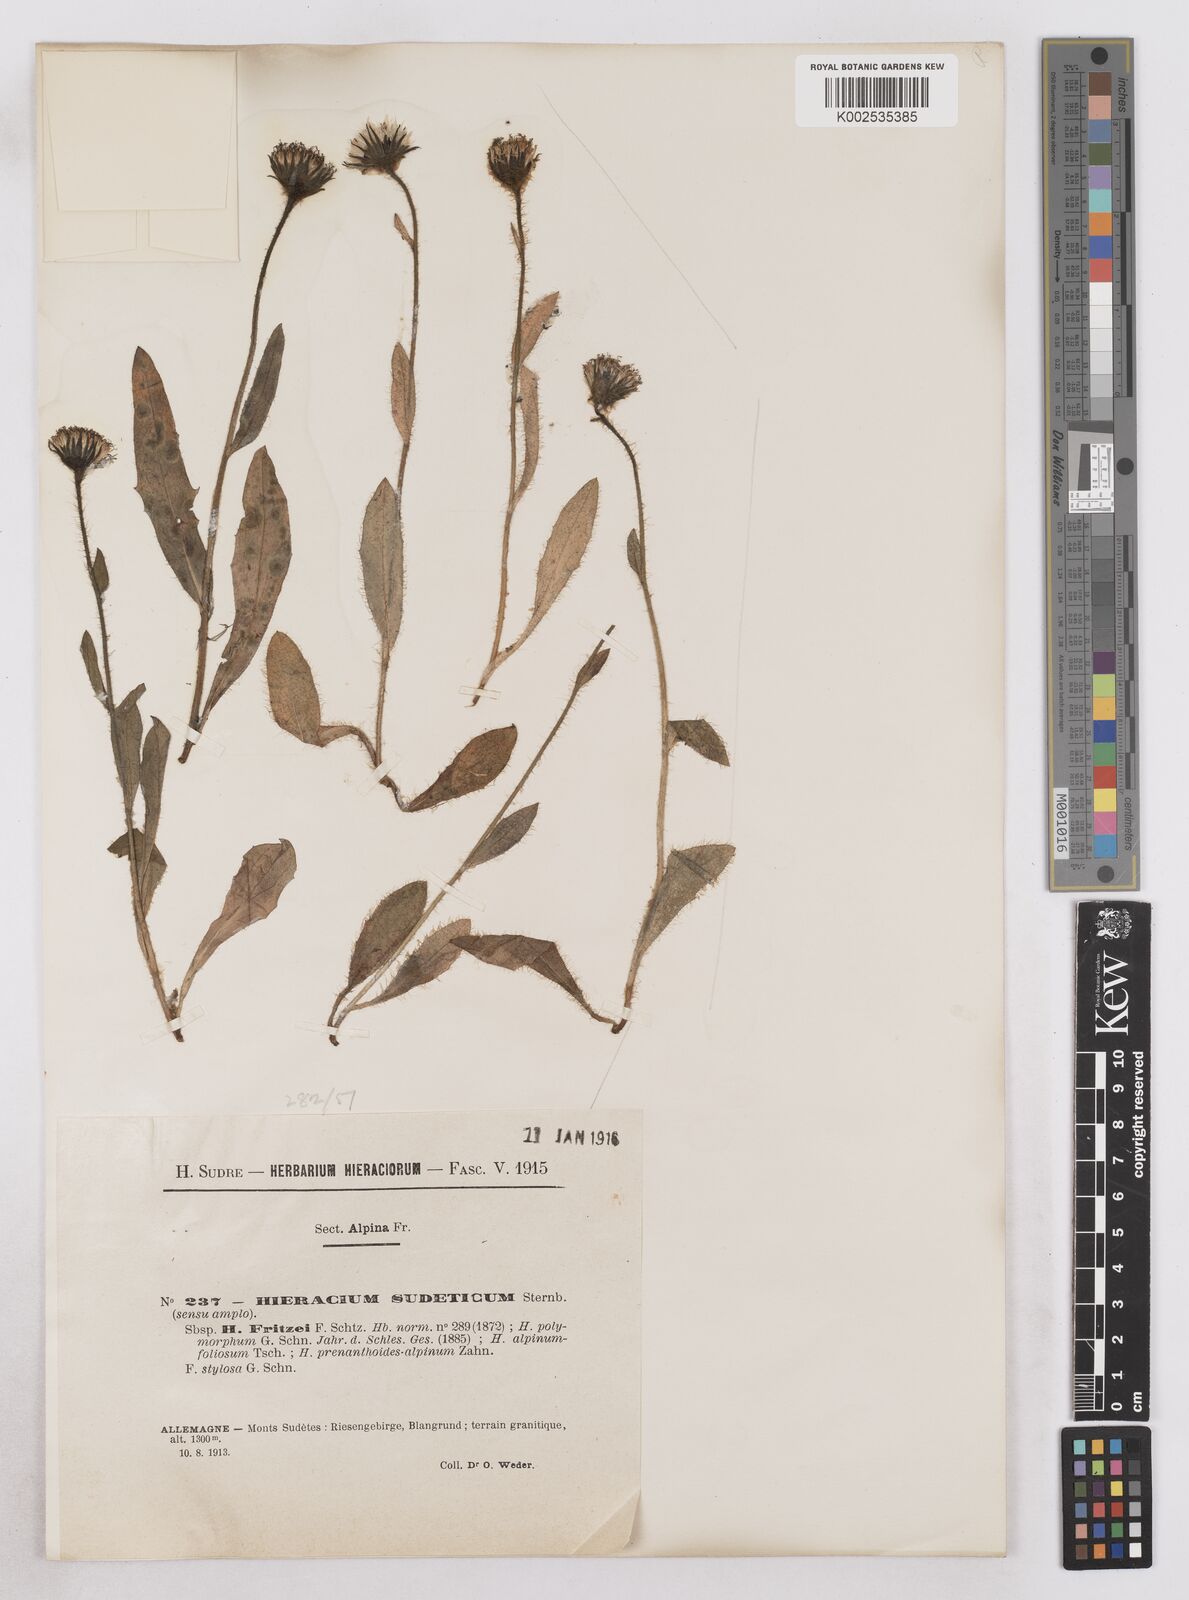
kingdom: Plantae
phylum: Tracheophyta
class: Magnoliopsida
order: Asterales
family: Asteraceae
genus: Hieracium
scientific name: Hieracium alpinum
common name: Alpine hawkweed
